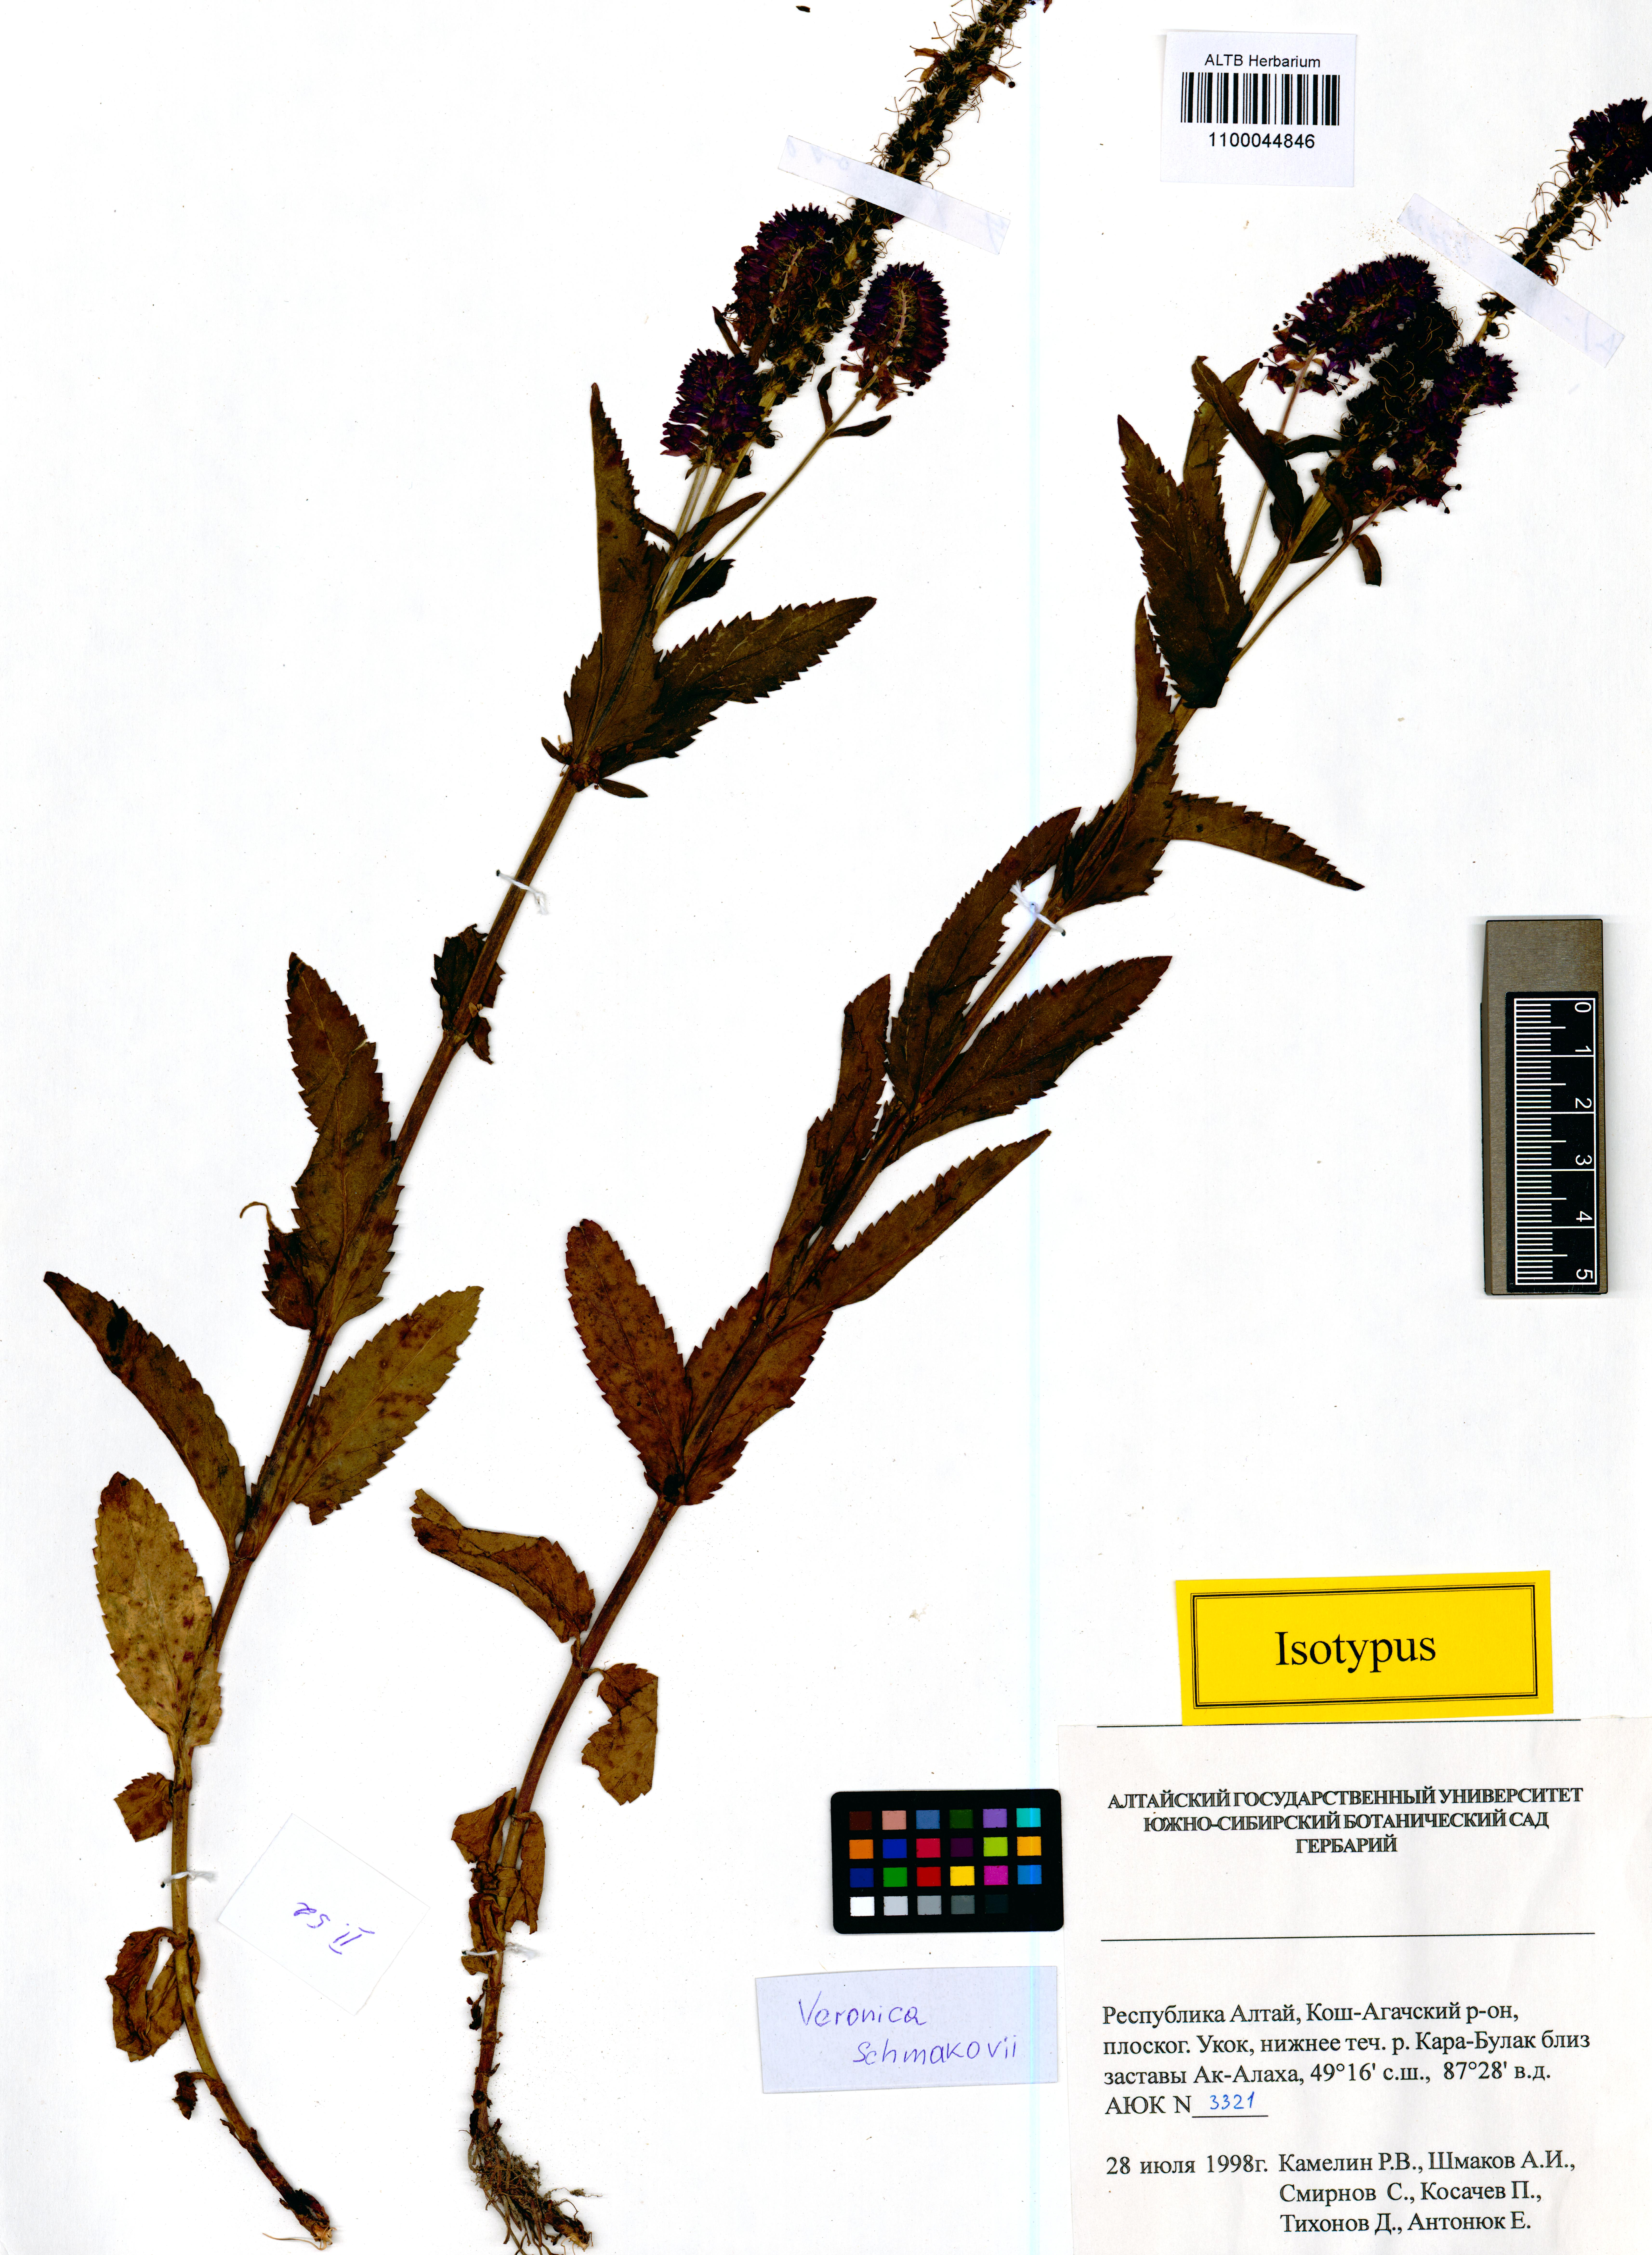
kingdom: Plantae
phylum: Tracheophyta
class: Magnoliopsida
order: Lamiales
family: Plantaginaceae
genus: Veronica
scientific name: Veronica schmakovii
